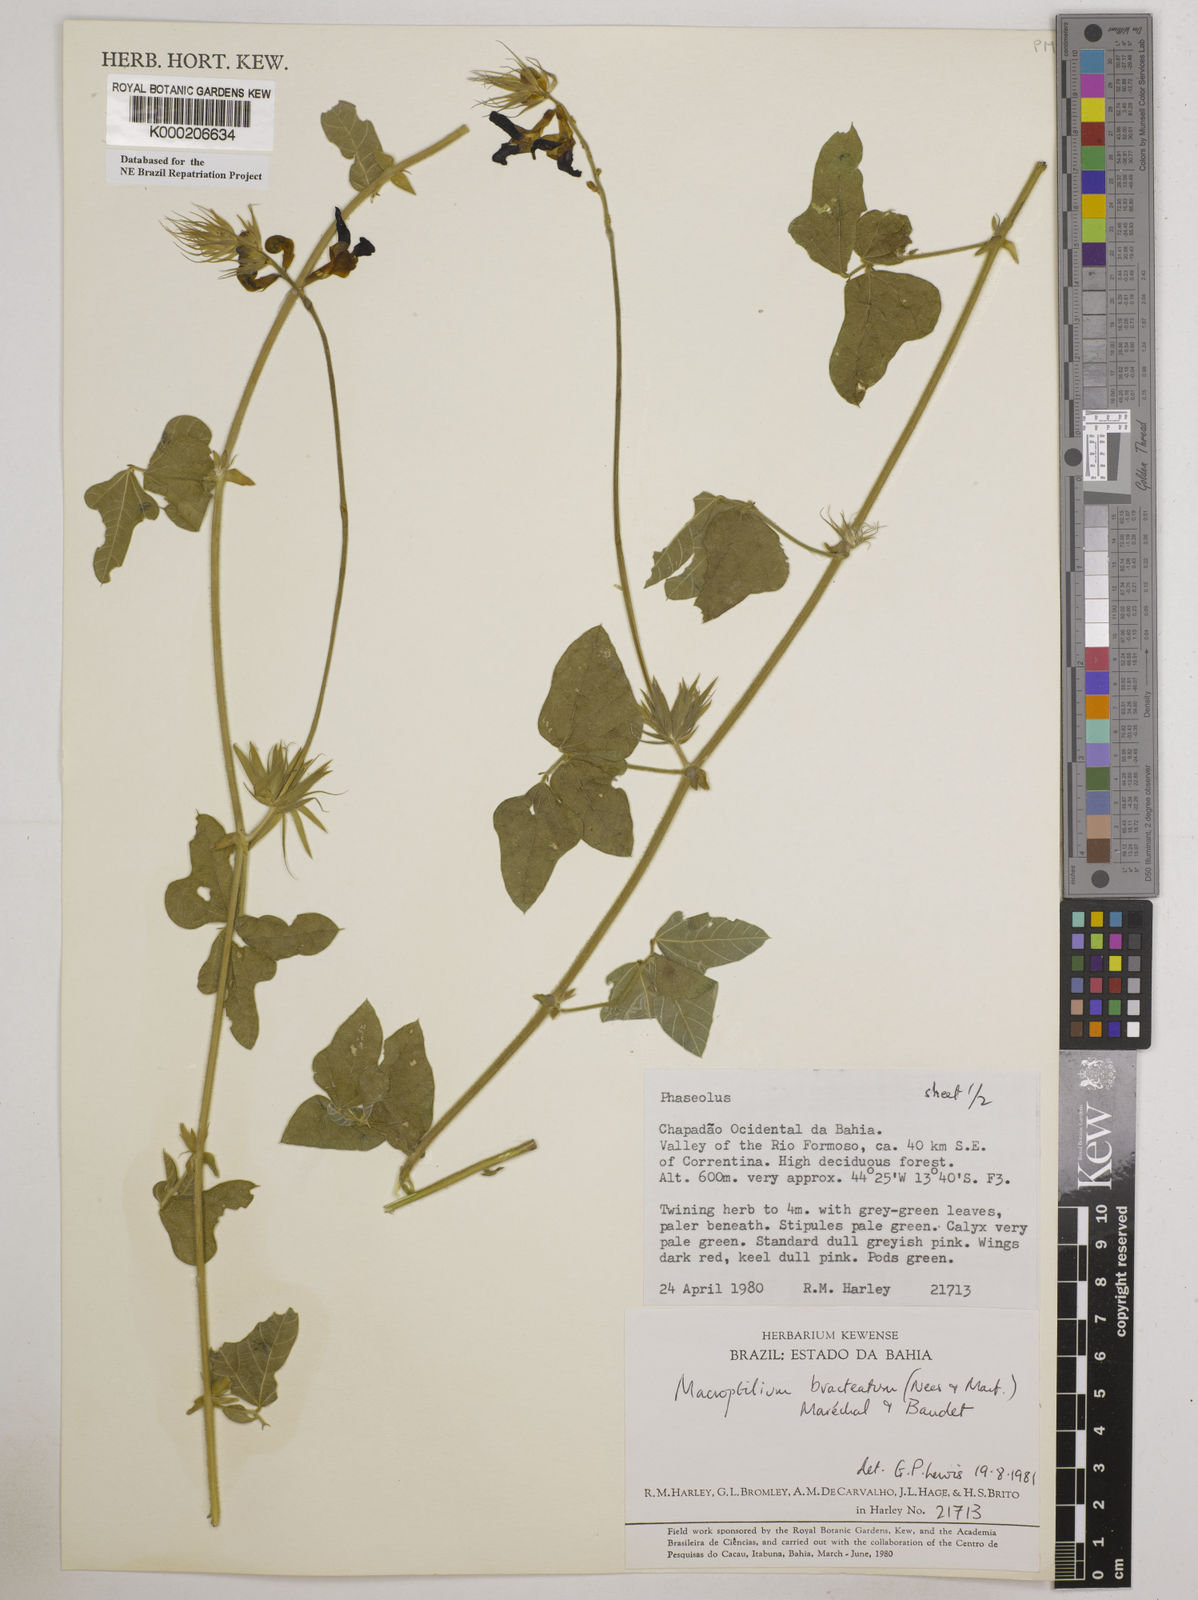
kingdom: Plantae
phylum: Tracheophyta
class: Magnoliopsida
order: Fabales
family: Fabaceae
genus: Macroptilium
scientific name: Macroptilium
